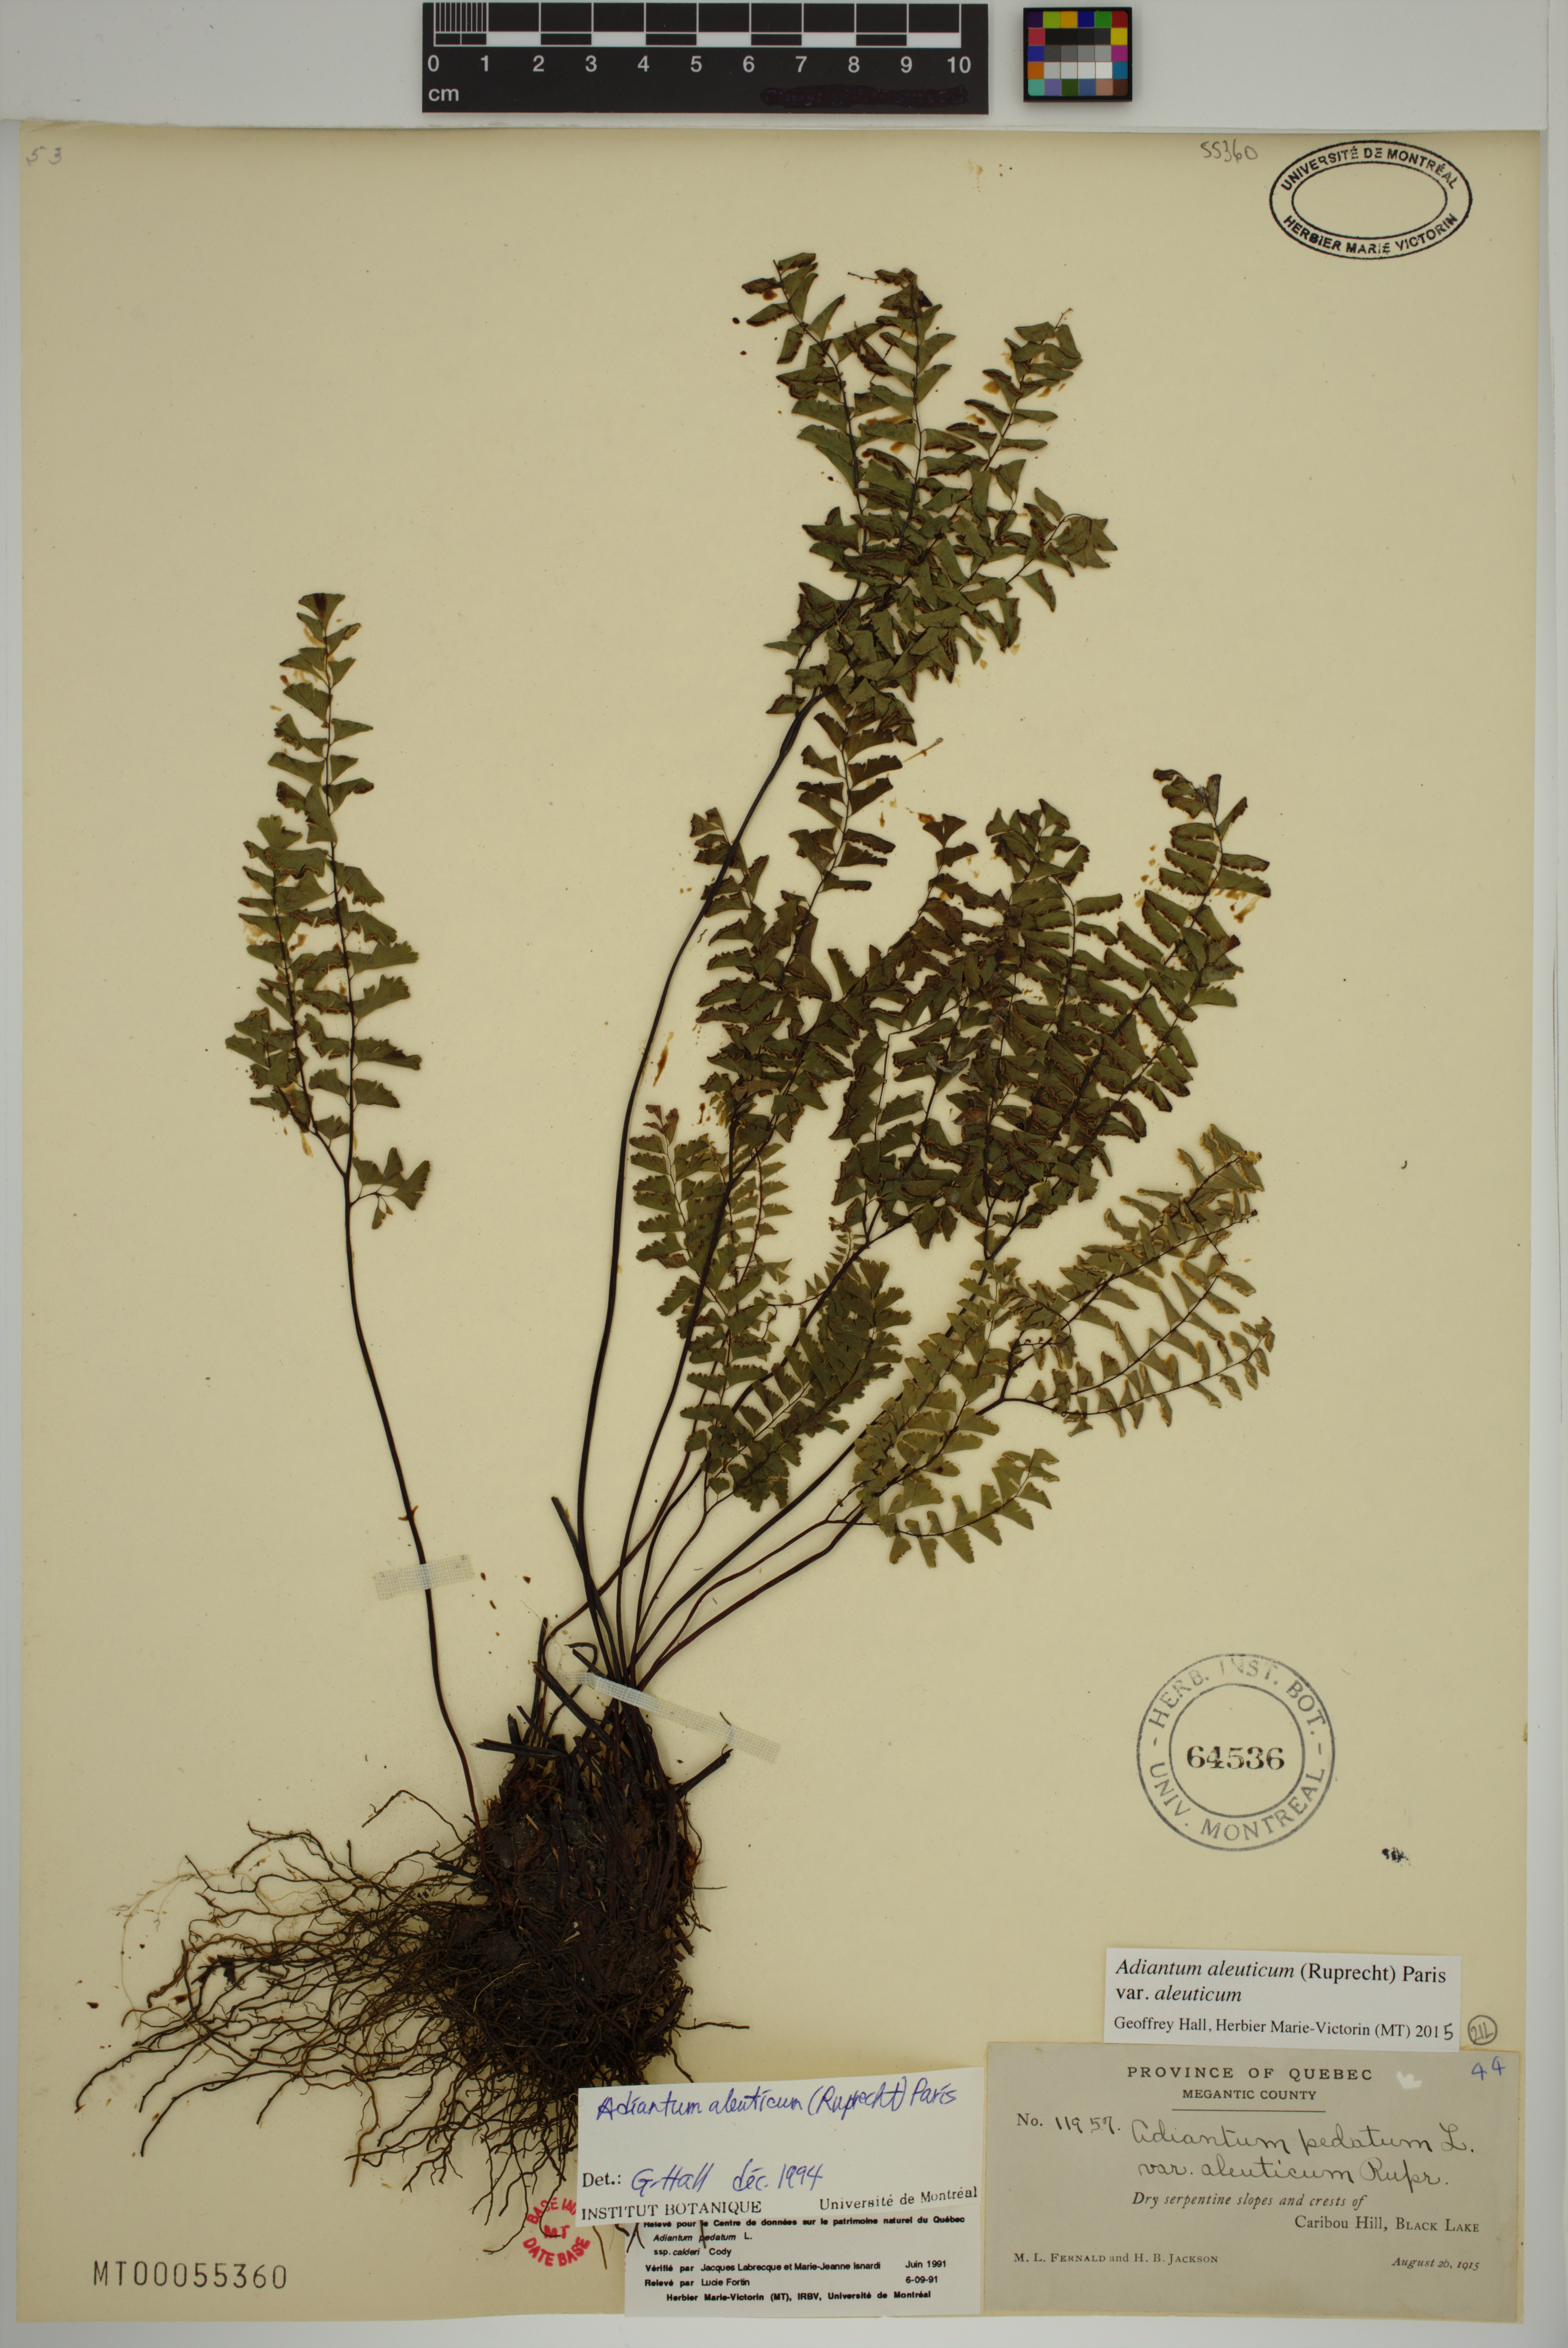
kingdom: Plantae
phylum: Tracheophyta
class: Polypodiopsida
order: Polypodiales
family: Pteridaceae
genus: Adiantum
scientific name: Adiantum aleuticum
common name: Aleutian maidenhair fern
